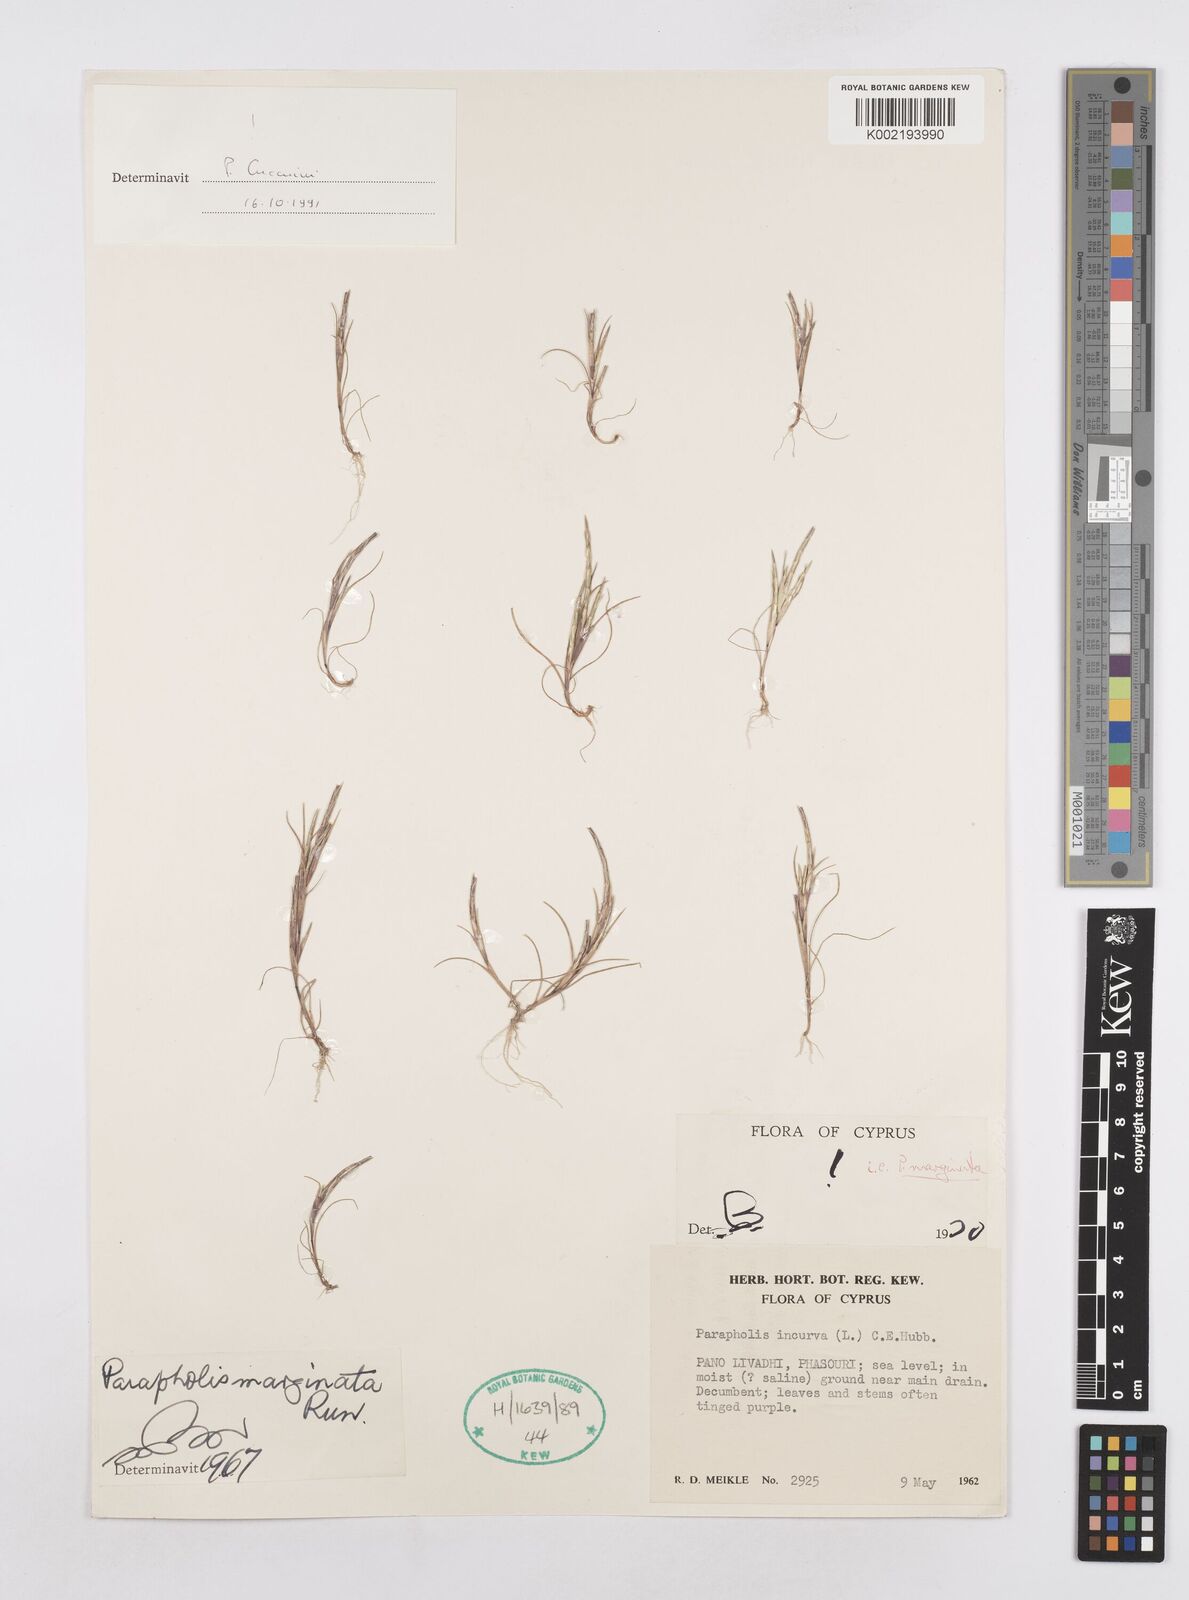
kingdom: Plantae
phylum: Tracheophyta
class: Liliopsida
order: Poales
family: Poaceae
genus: Parapholis
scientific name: Parapholis marginata
